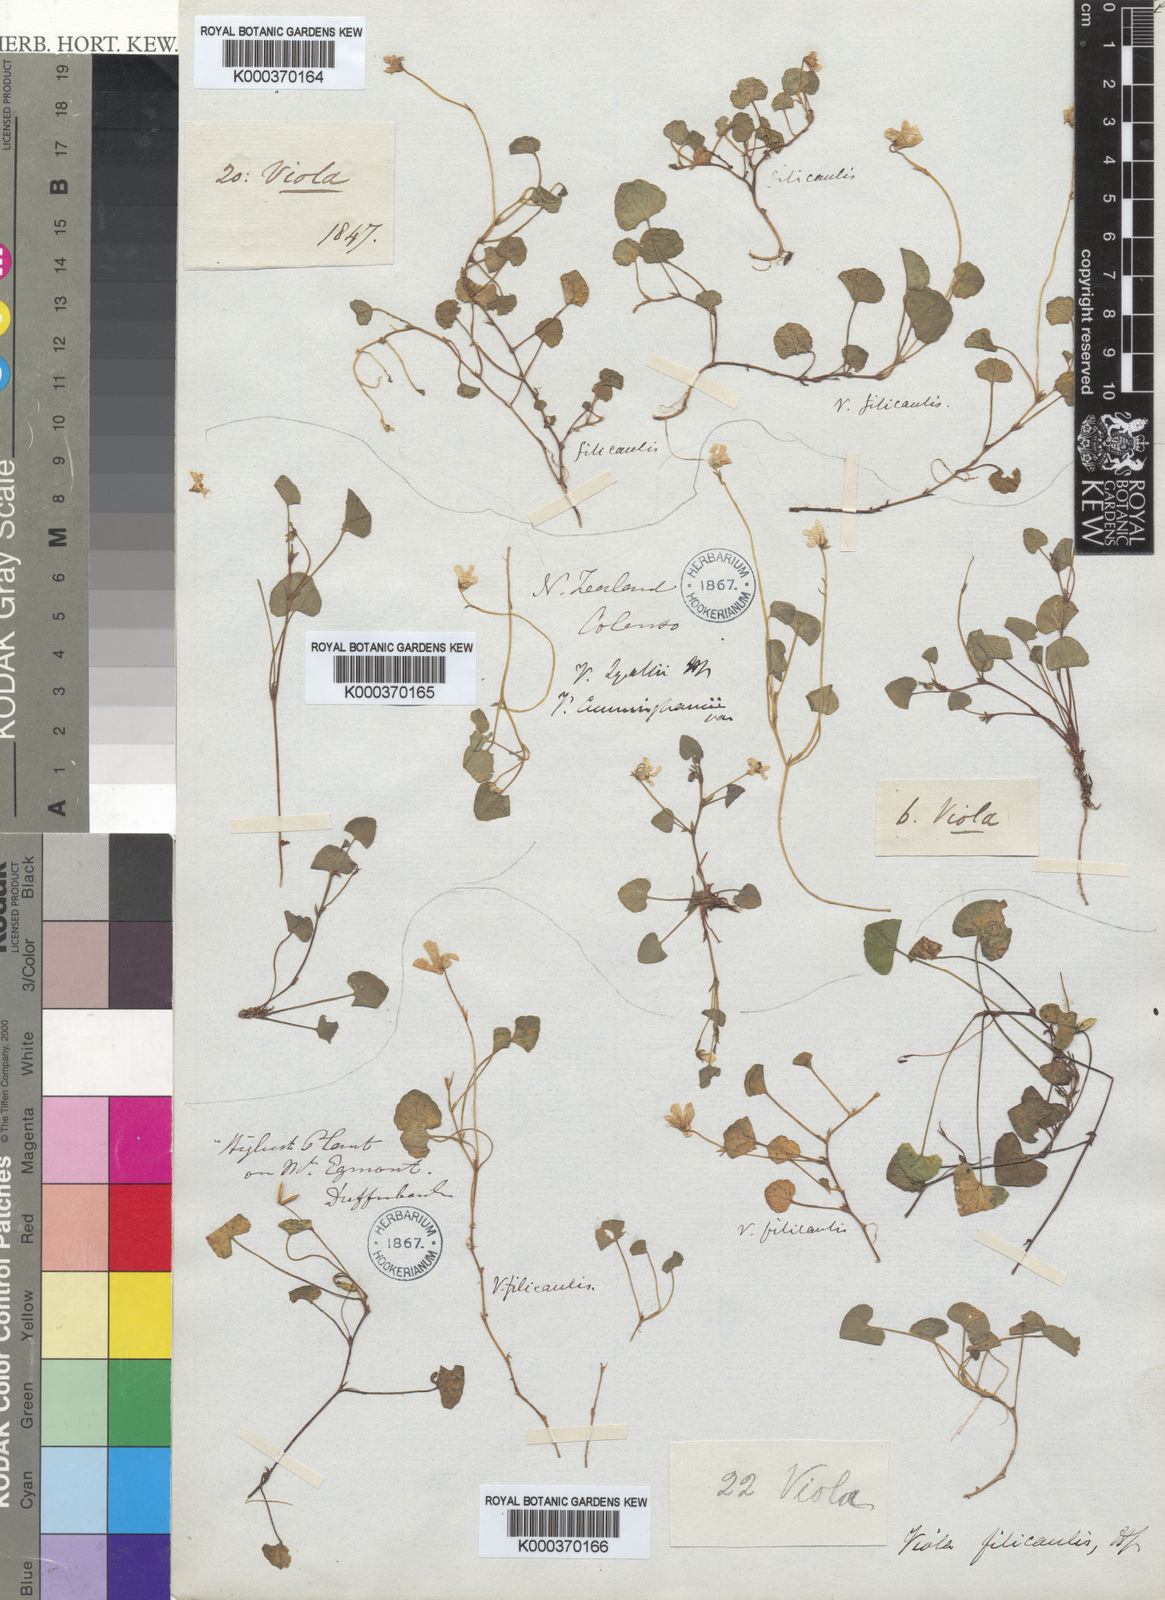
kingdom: Plantae
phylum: Tracheophyta
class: Magnoliopsida
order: Malpighiales
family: Violaceae
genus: Viola
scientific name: Viola filicaulis
